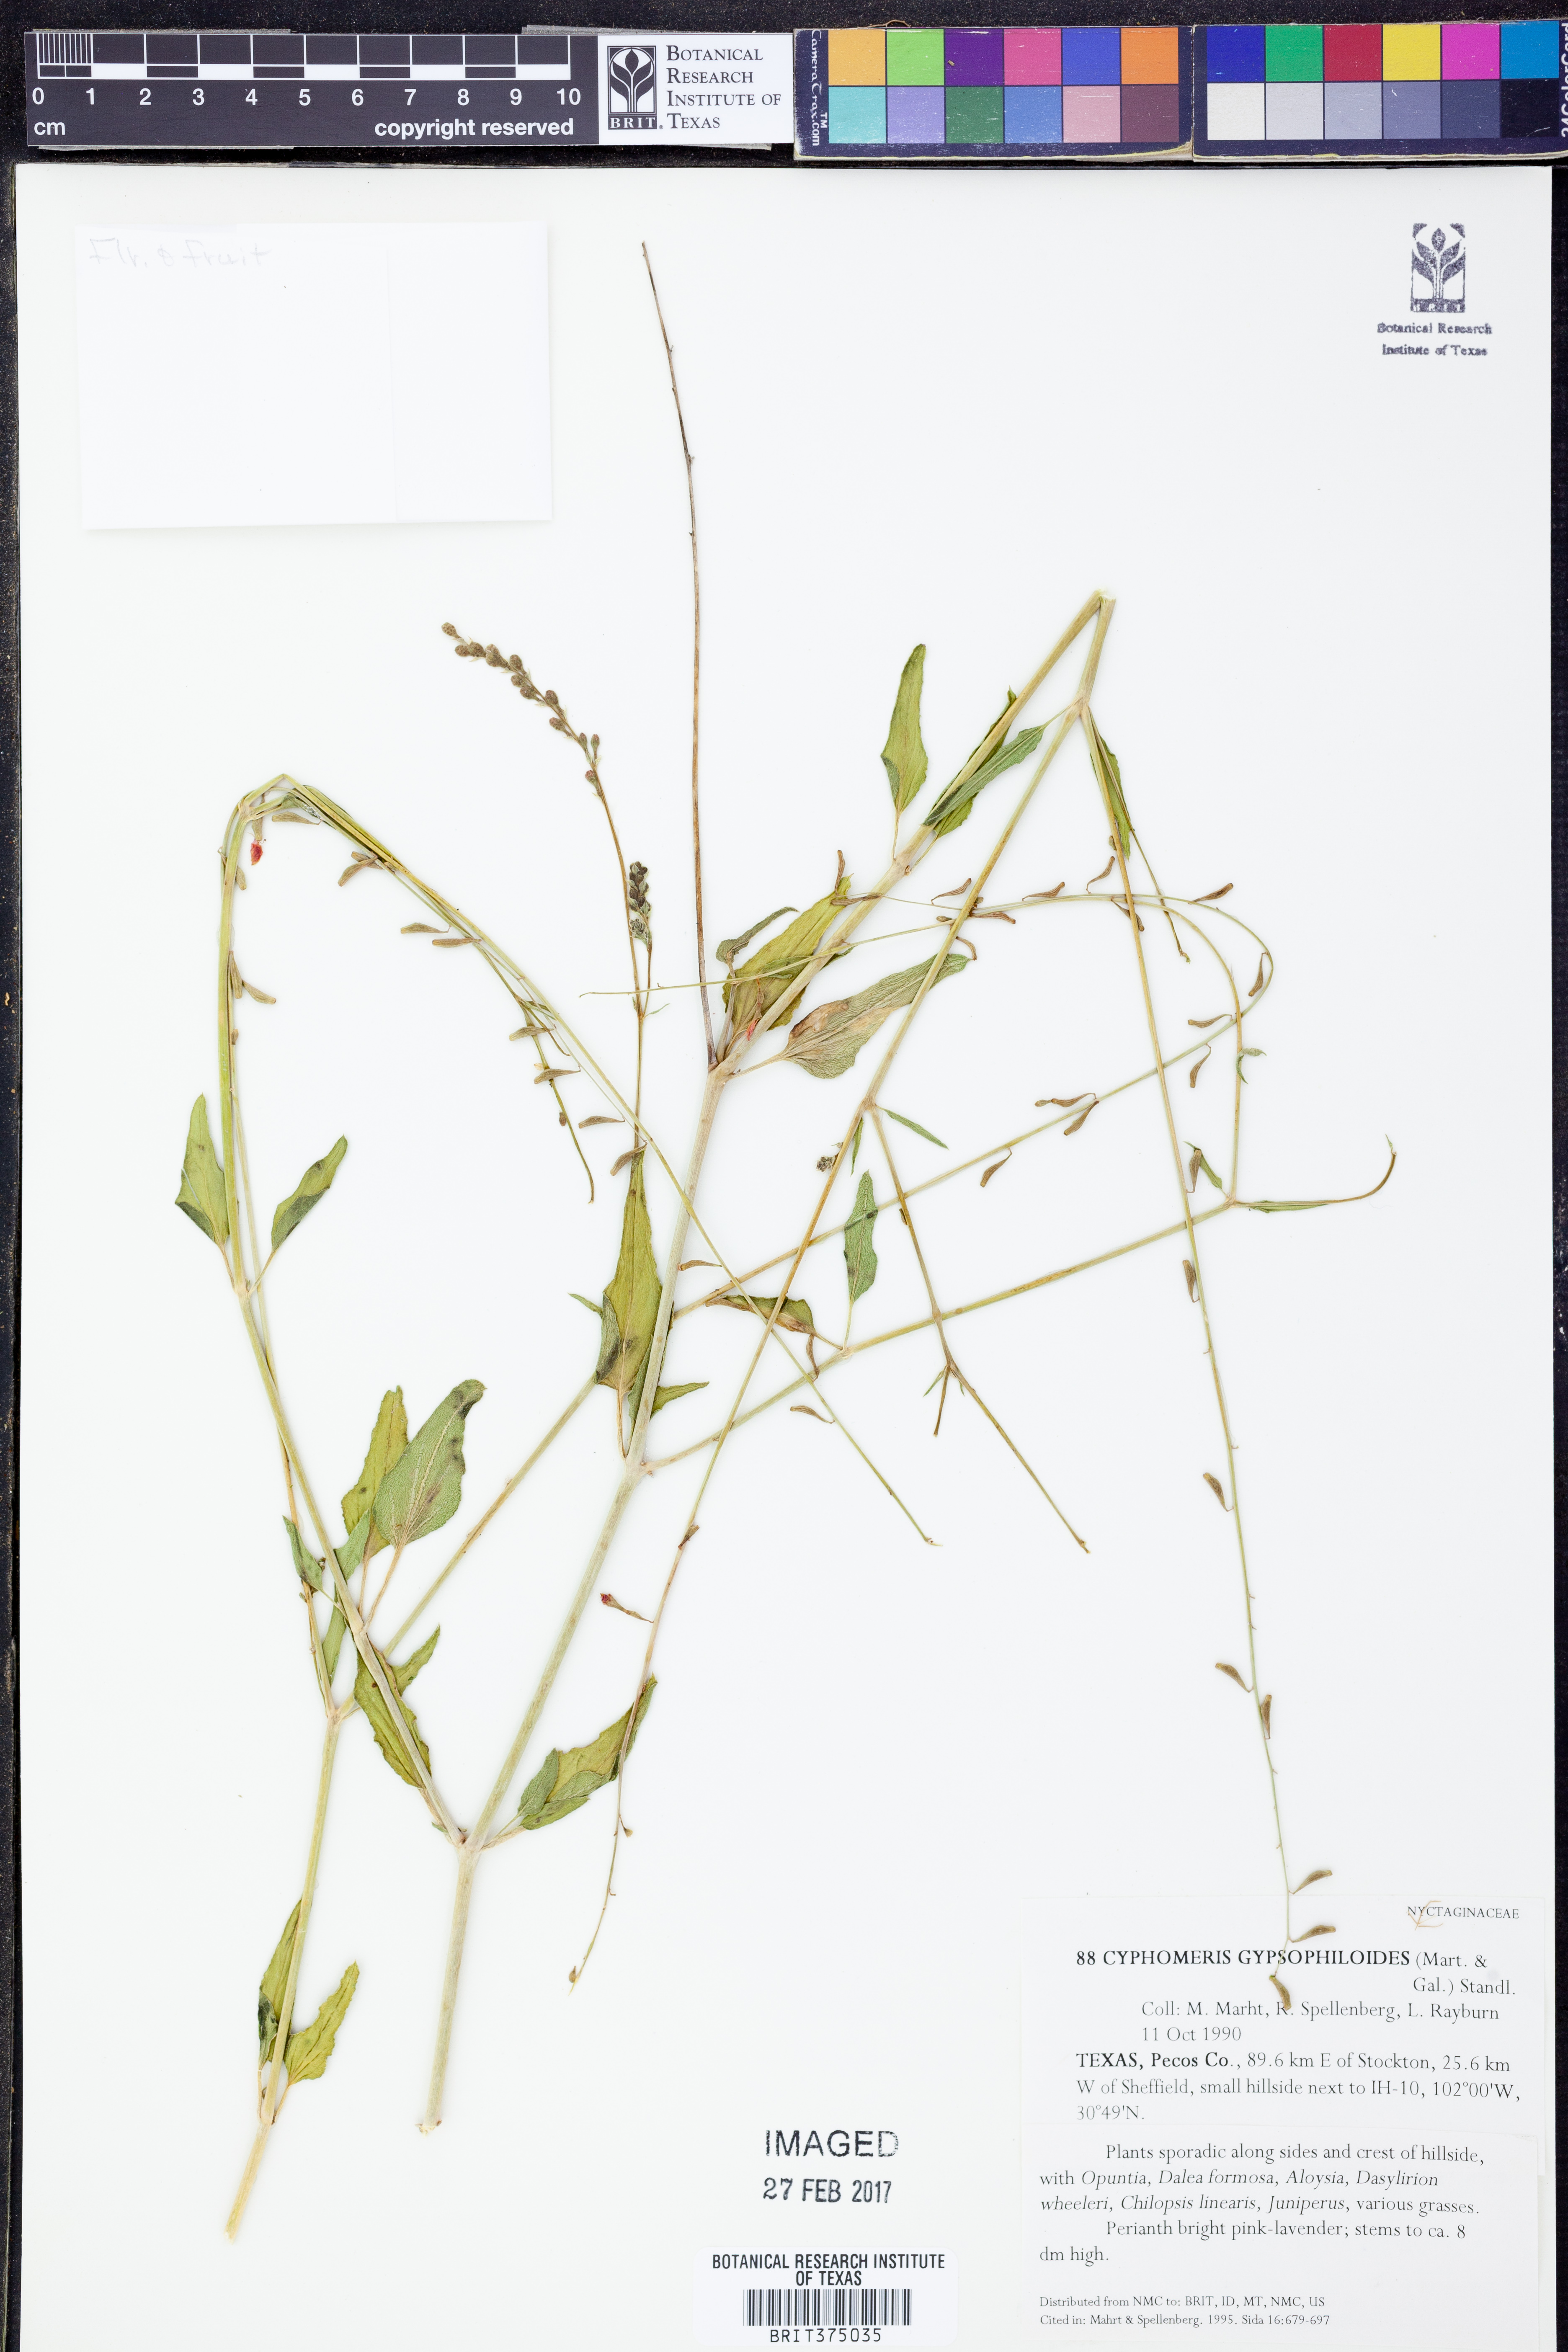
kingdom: Plantae
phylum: Tracheophyta
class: Magnoliopsida
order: Caryophyllales
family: Nyctaginaceae
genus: Cyphomeris
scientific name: Cyphomeris gypsophiloides
